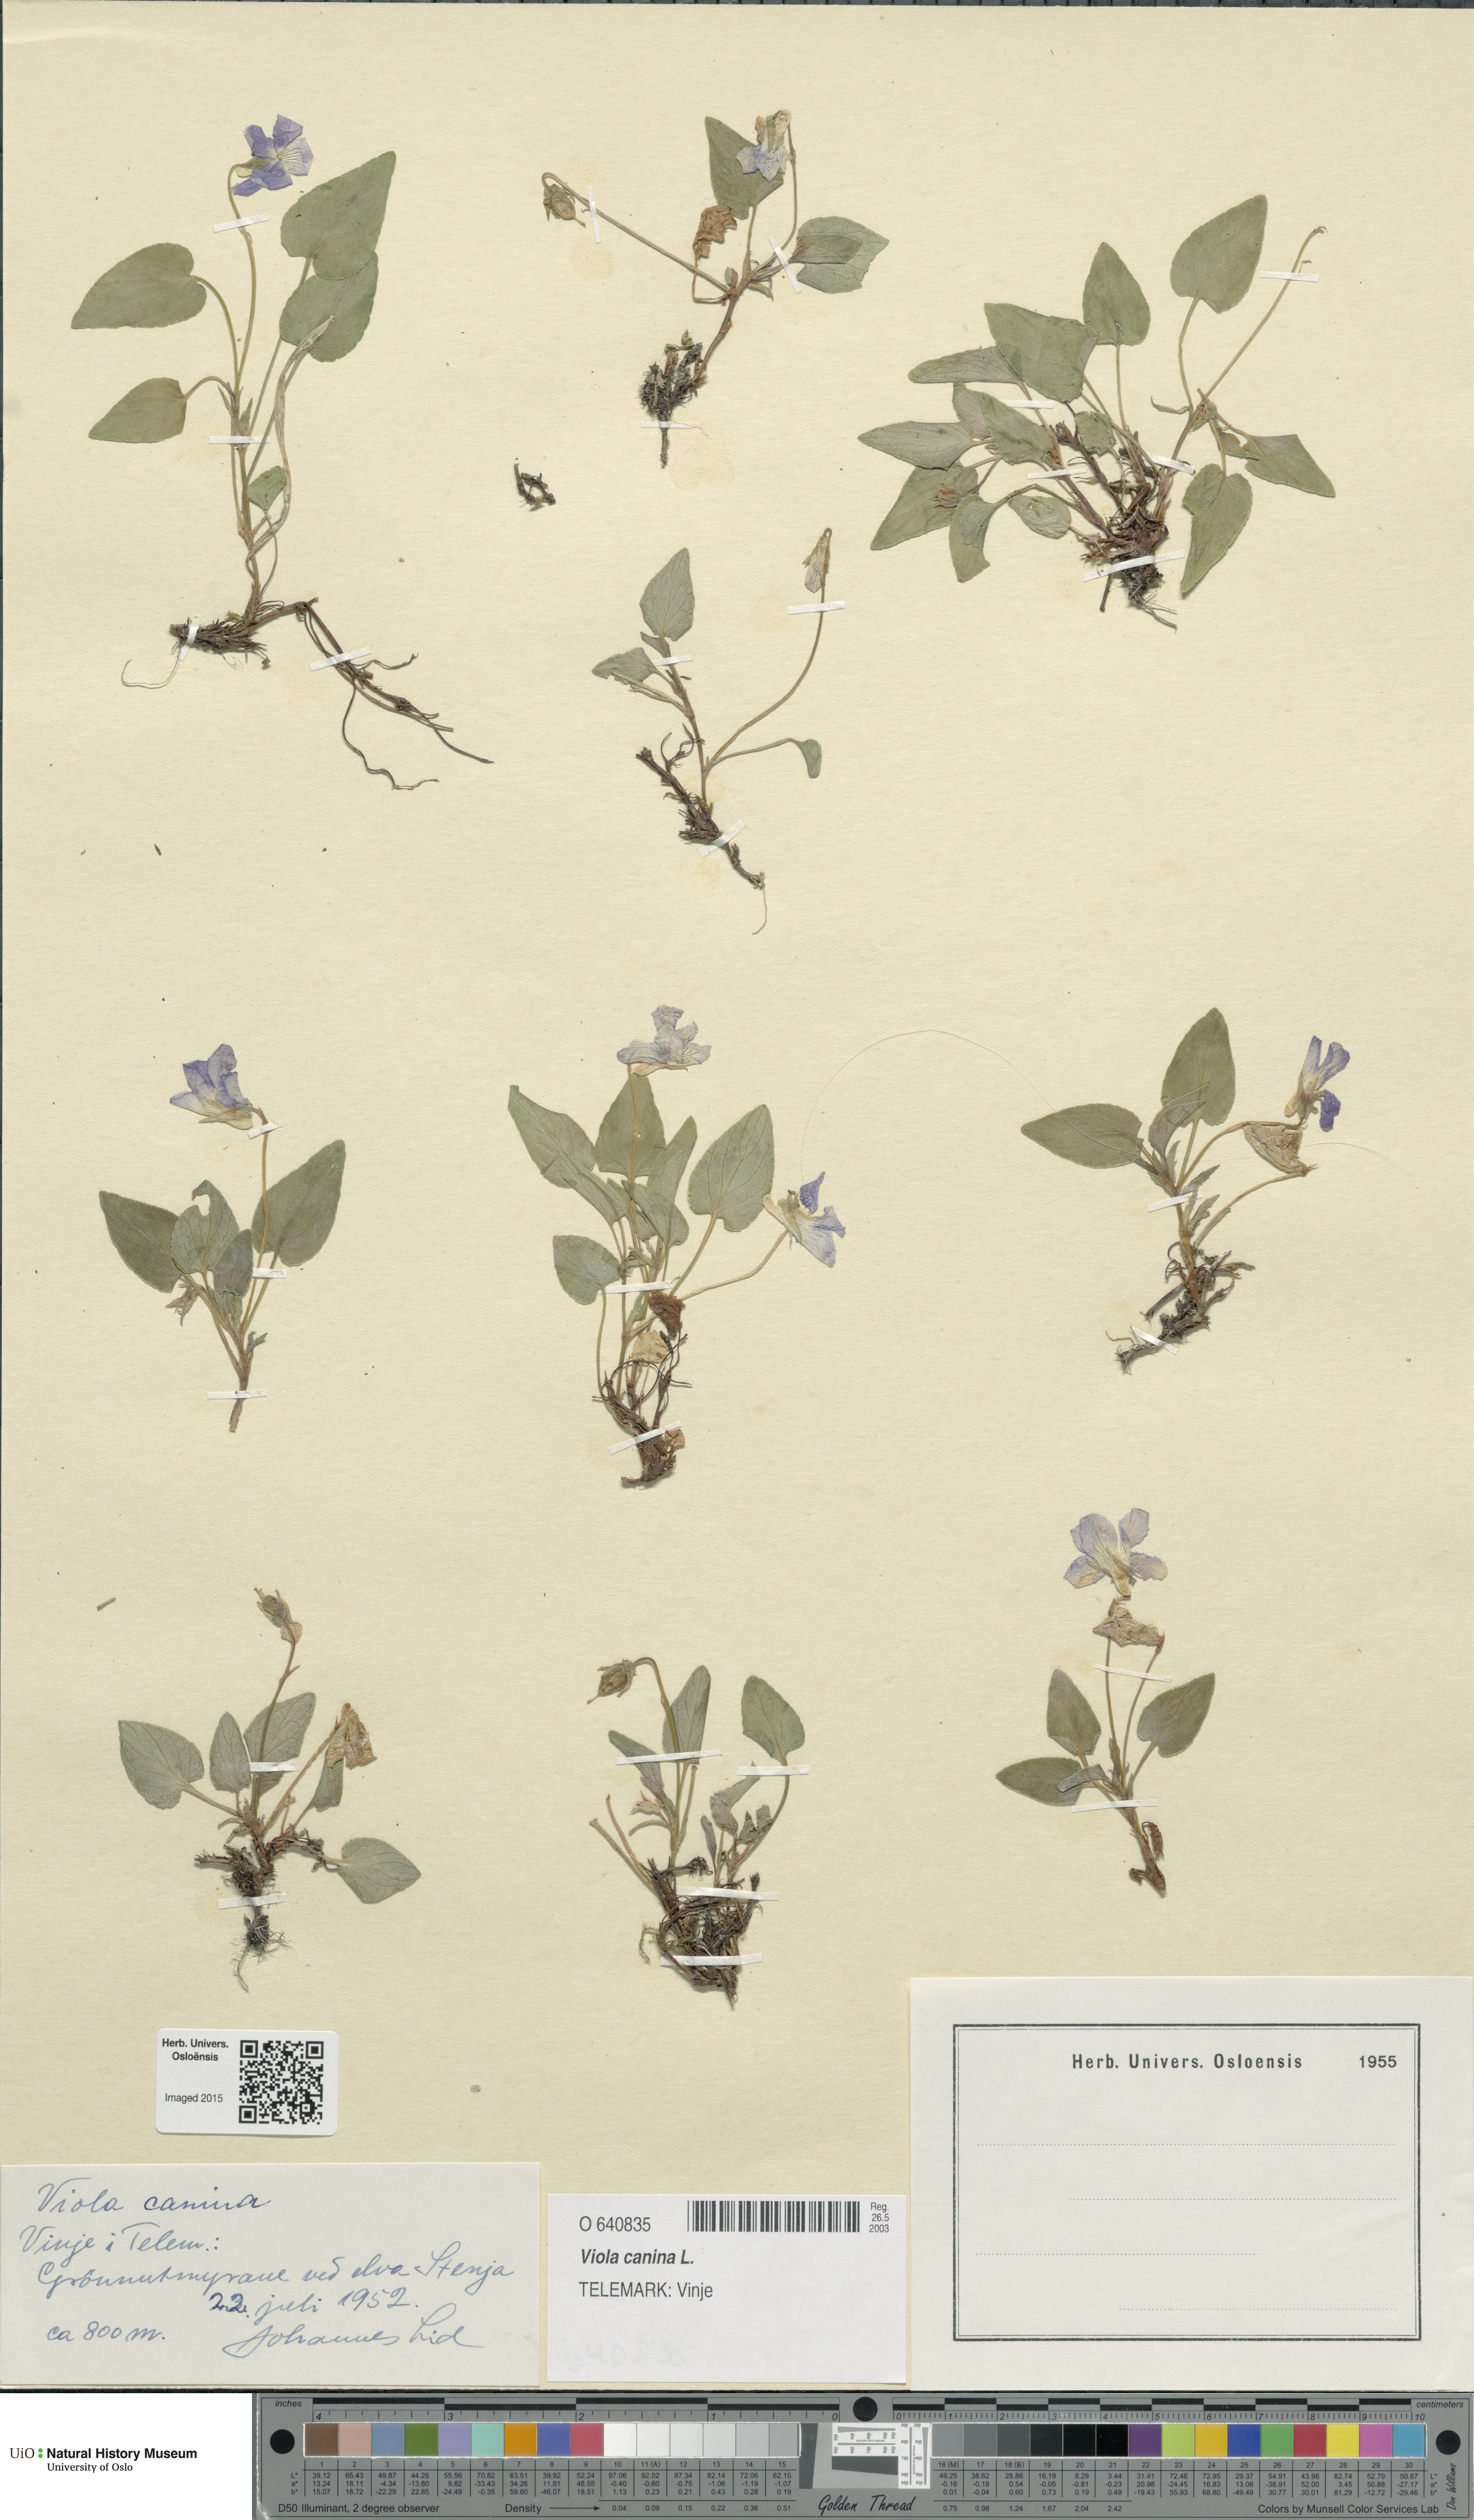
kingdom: Plantae
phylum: Tracheophyta
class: Magnoliopsida
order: Malpighiales
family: Violaceae
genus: Viola
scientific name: Viola canina
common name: Heath dog-violet
